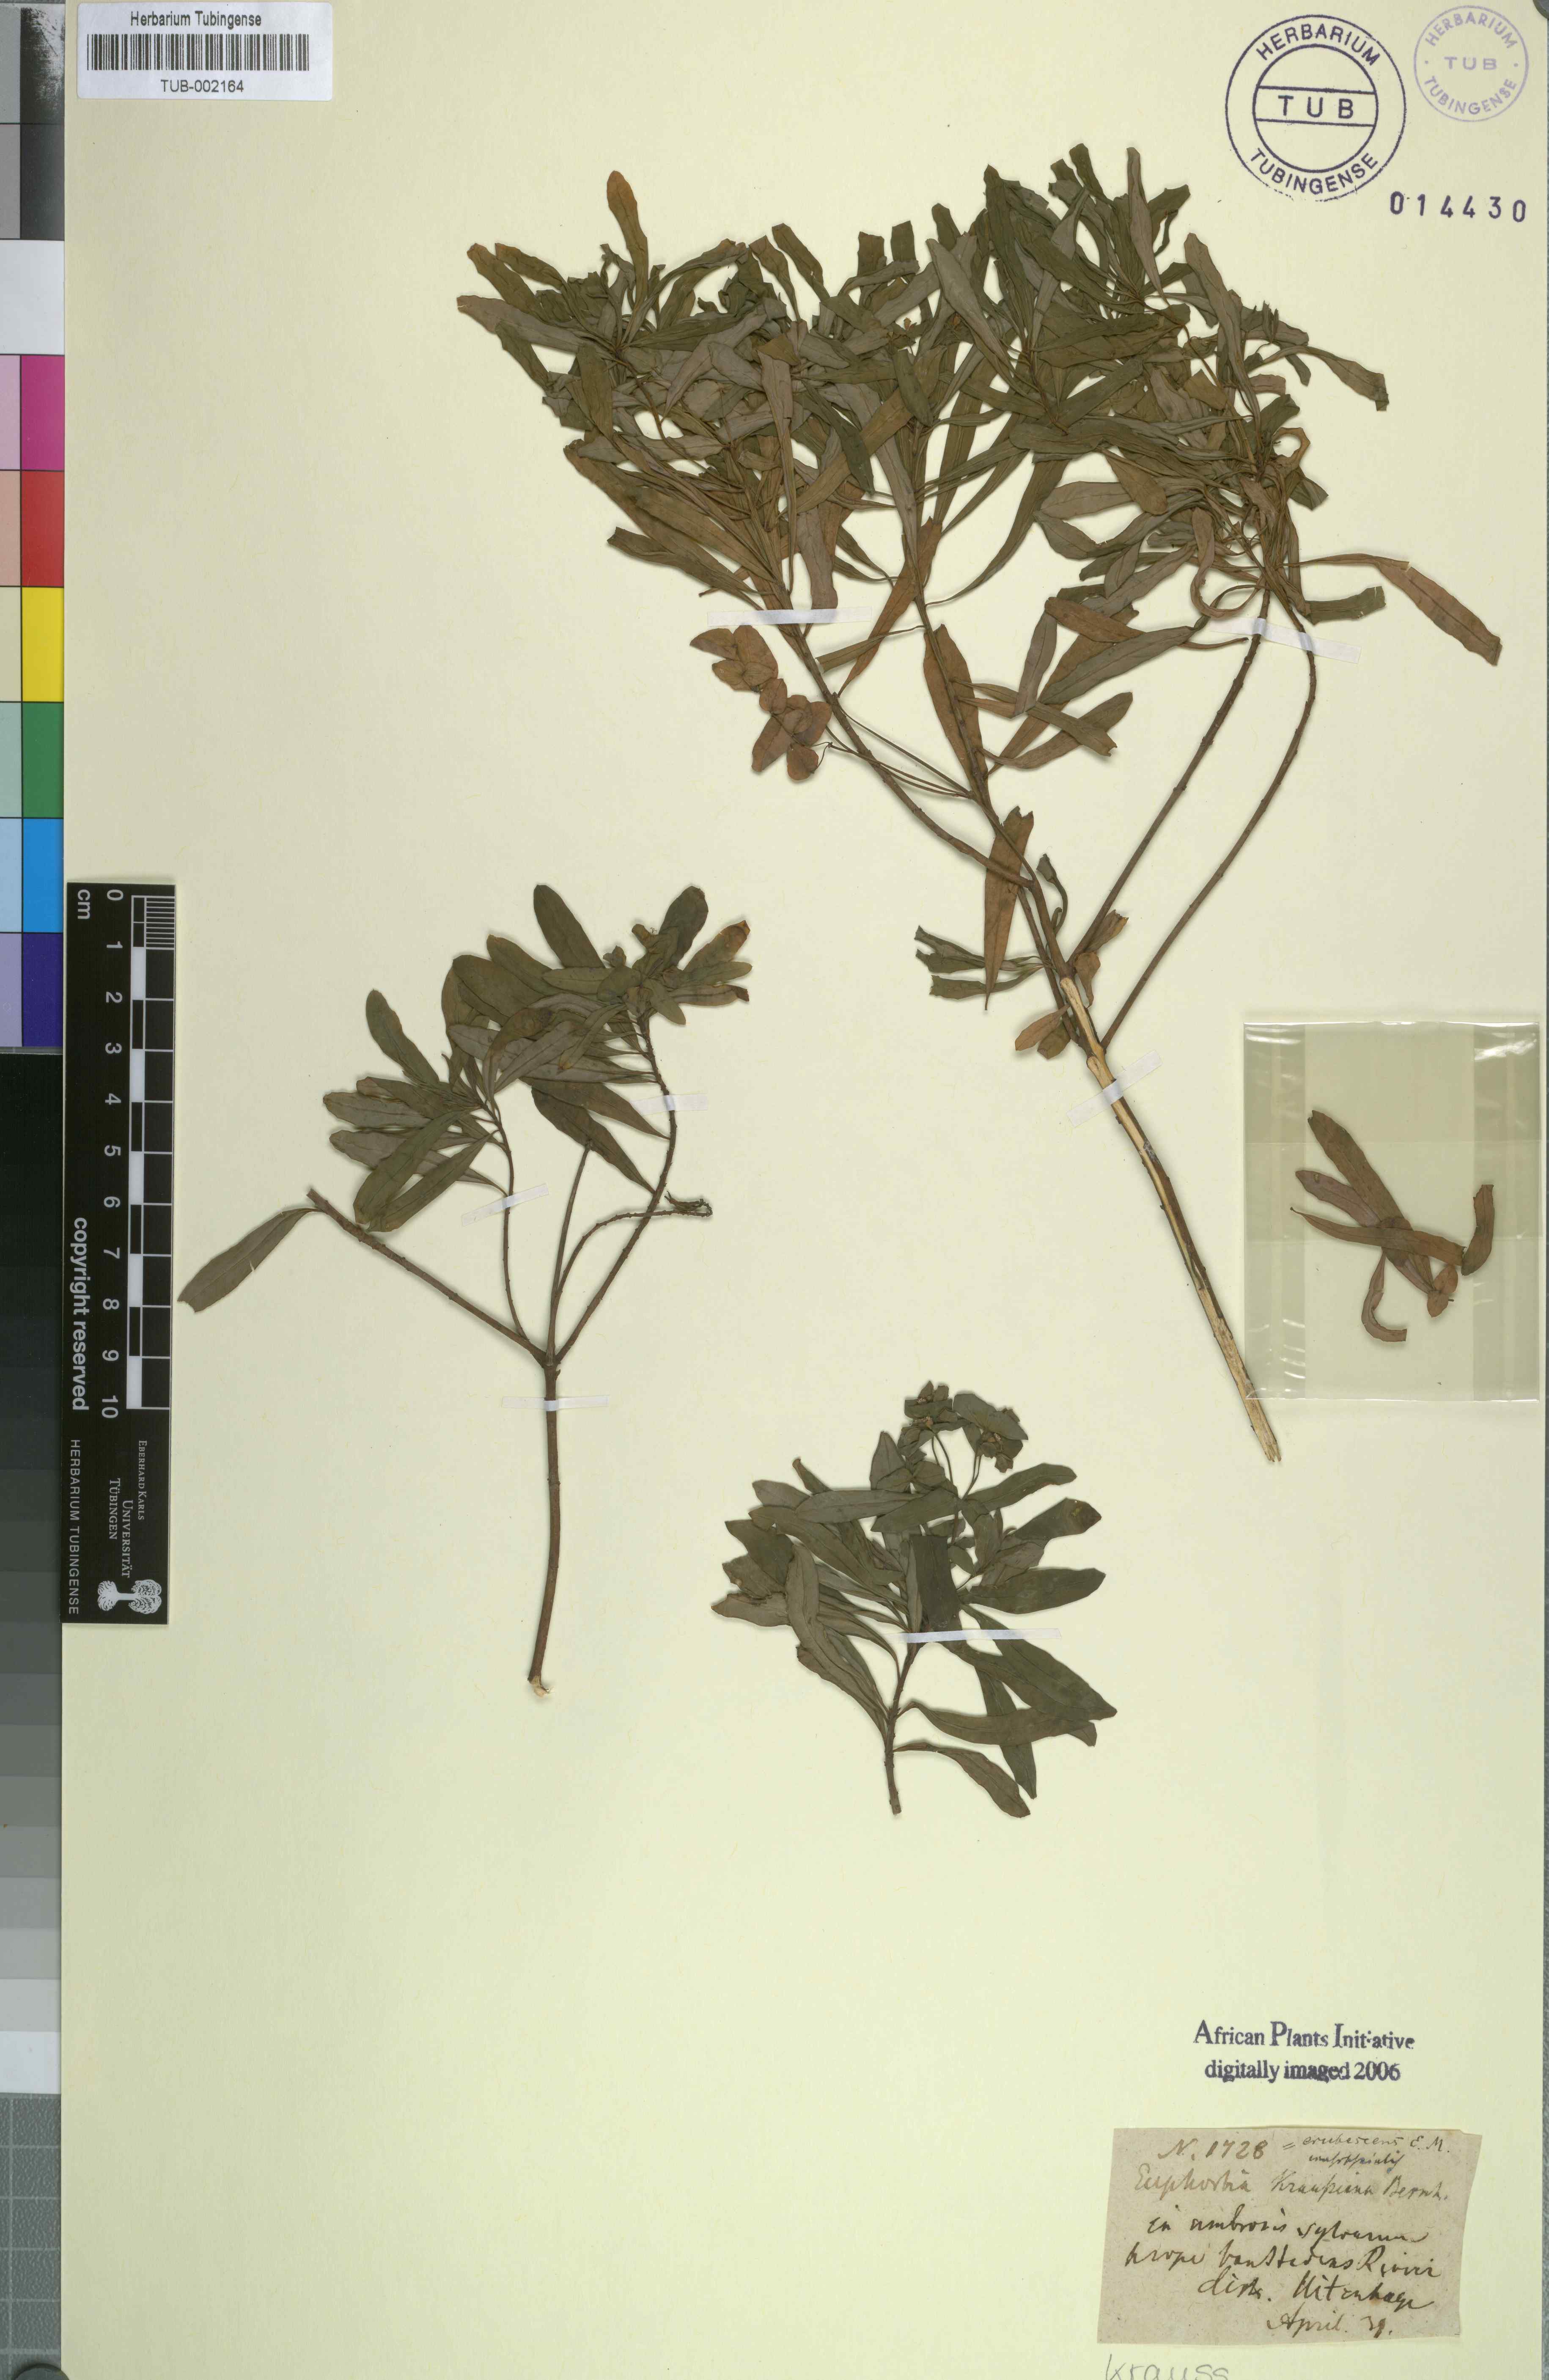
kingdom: Plantae
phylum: Tracheophyta
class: Magnoliopsida
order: Malpighiales
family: Euphorbiaceae
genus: Euphorbia
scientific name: Euphorbia kraussiana
